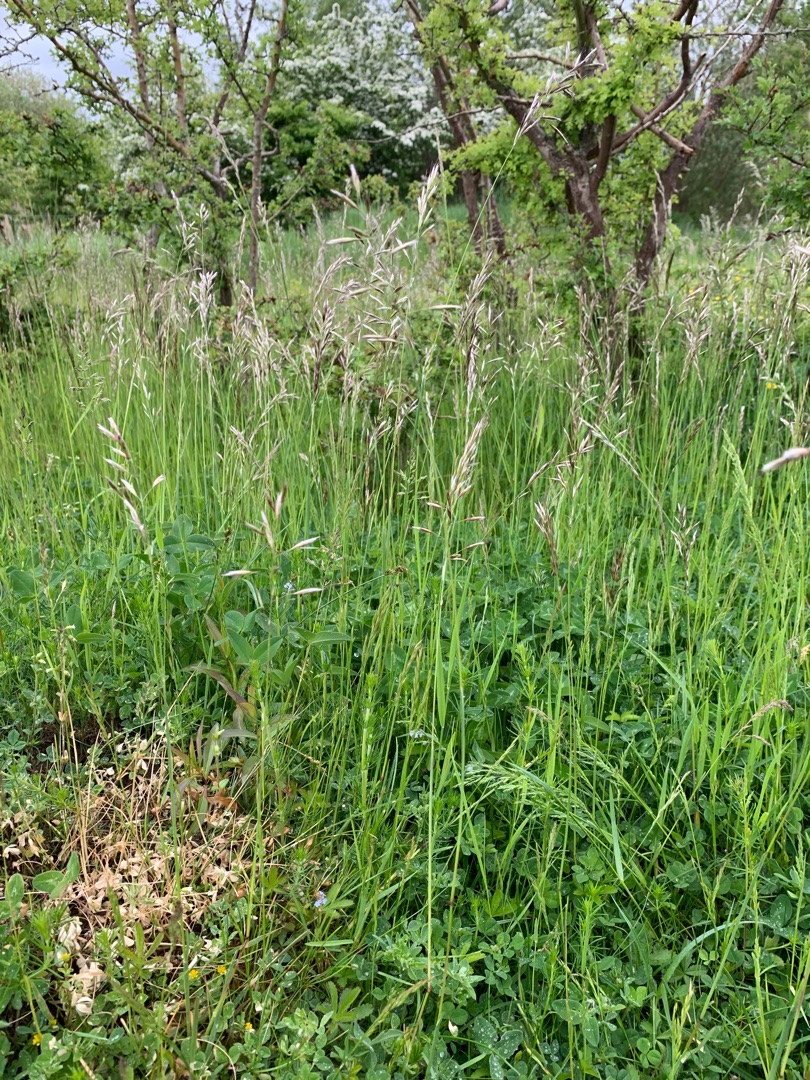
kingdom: Plantae
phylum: Tracheophyta
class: Liliopsida
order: Poales
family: Poaceae
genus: Avenula
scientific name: Avenula pubescens
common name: Dunet havre
